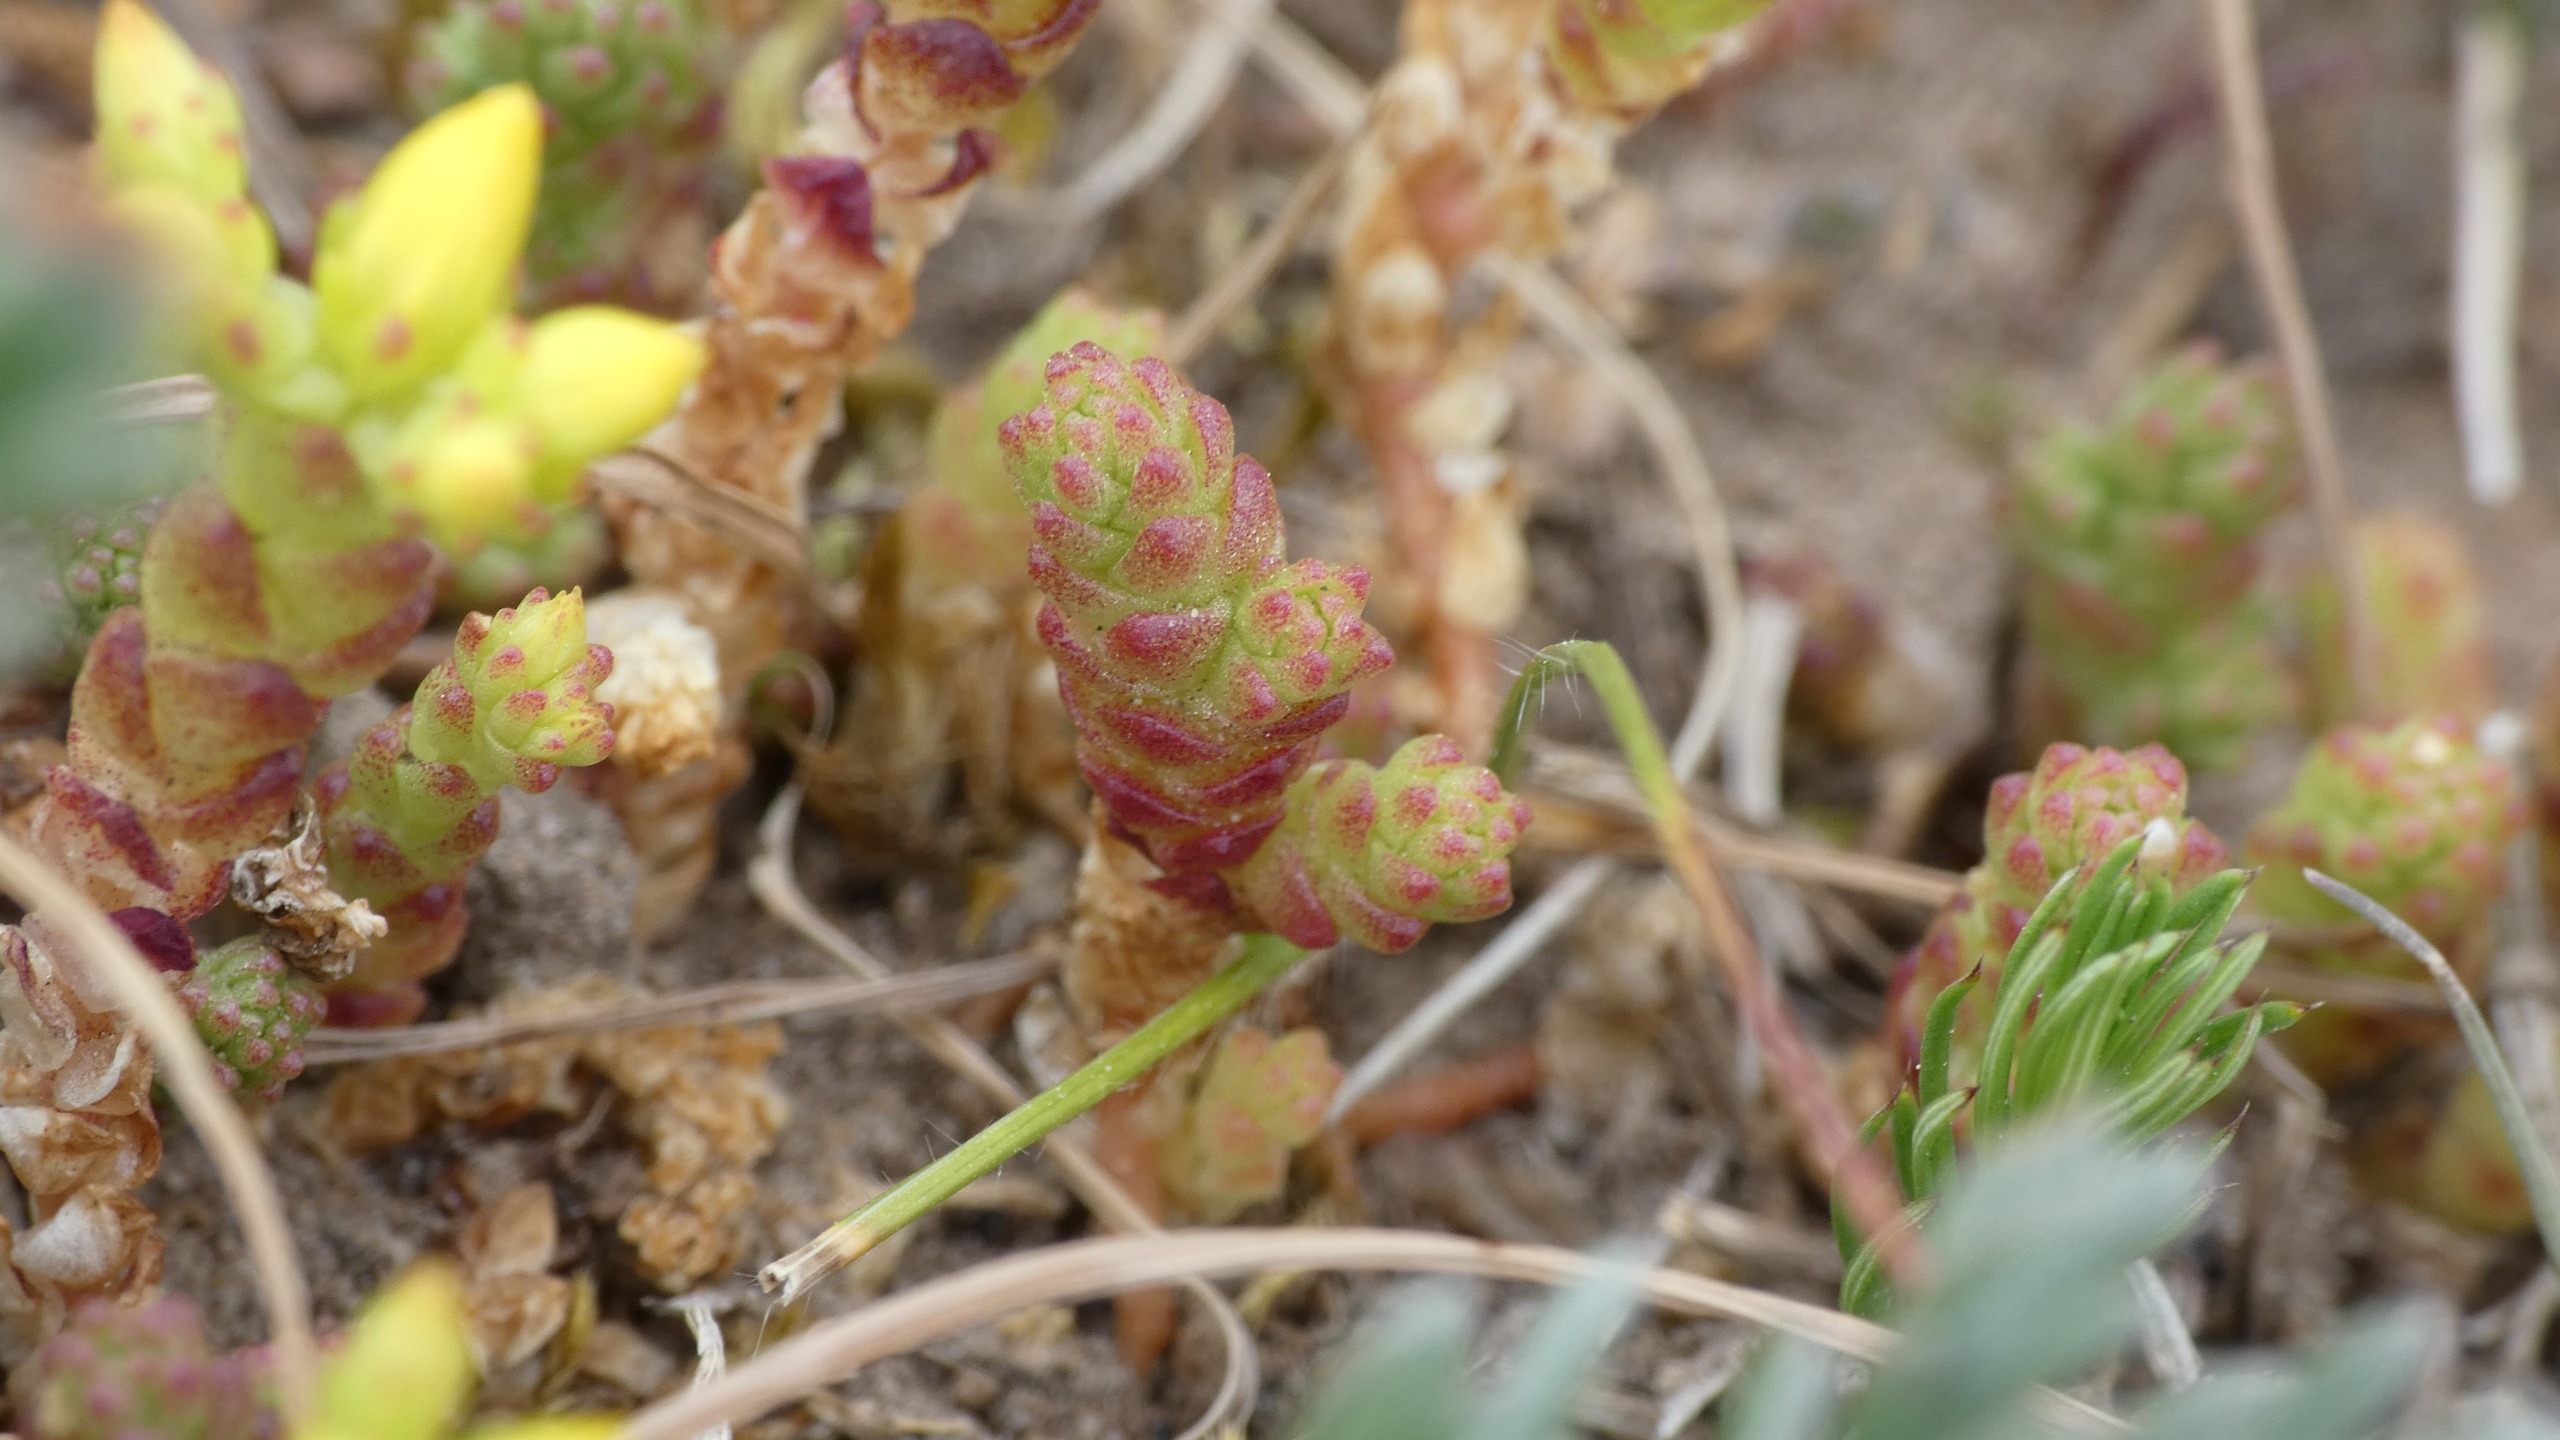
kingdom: Plantae
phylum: Tracheophyta
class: Magnoliopsida
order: Saxifragales
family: Crassulaceae
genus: Sedum
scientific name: Sedum acre
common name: Bidende stenurt
